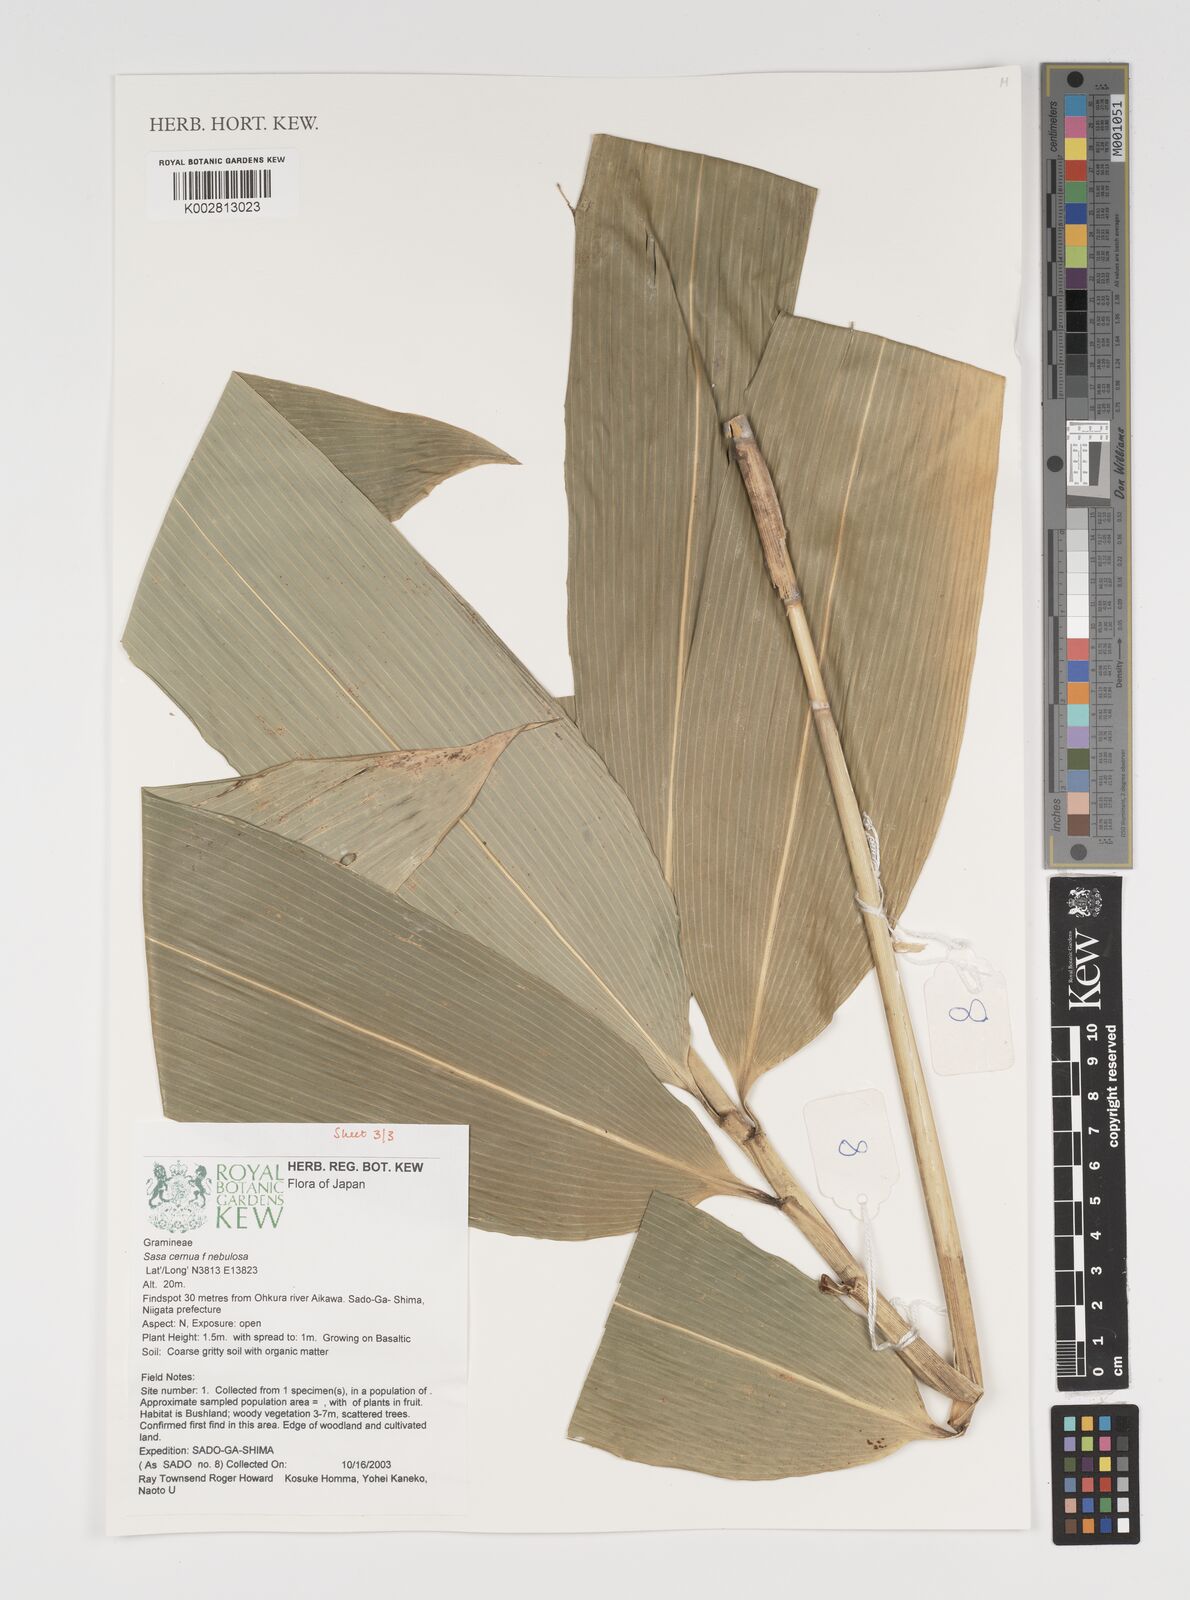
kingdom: Plantae
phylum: Tracheophyta
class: Liliopsida
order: Poales
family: Poaceae
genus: Sasa
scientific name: Sasa cernua
